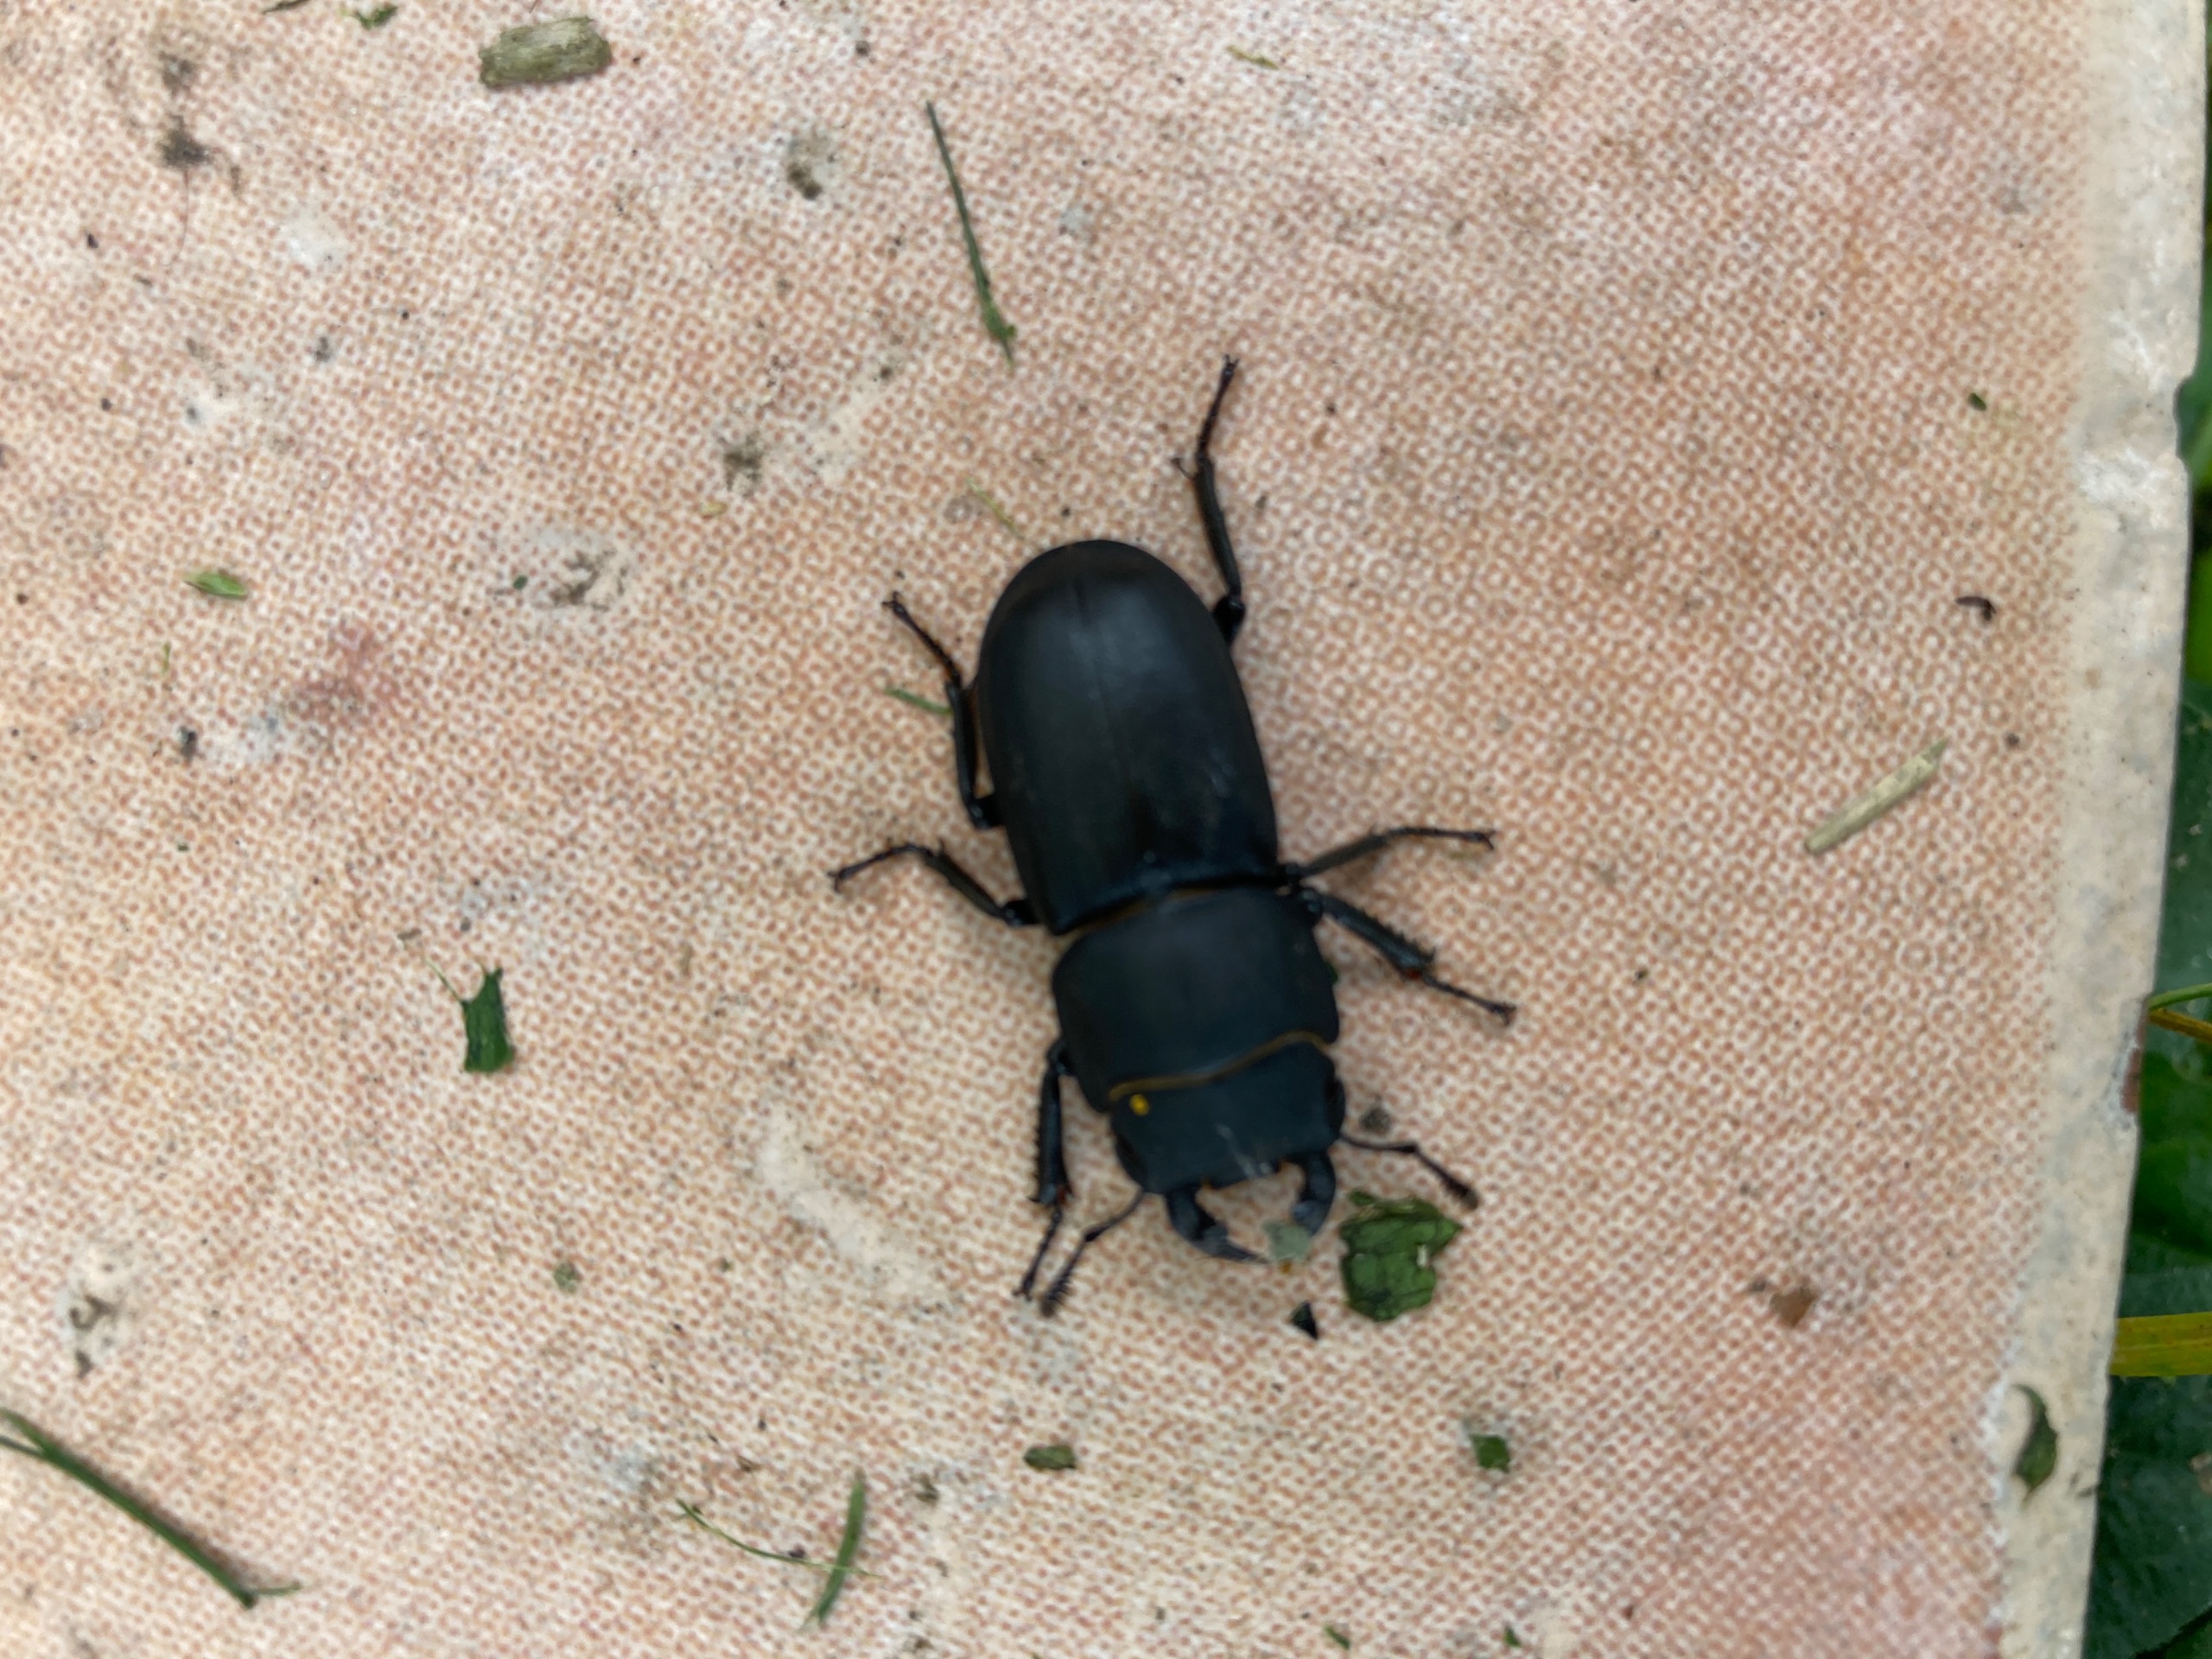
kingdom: Animalia
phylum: Arthropoda
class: Insecta
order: Coleoptera
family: Lucanidae
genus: Dorcus
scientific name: Dorcus parallelipipedus
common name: Bøghjort
